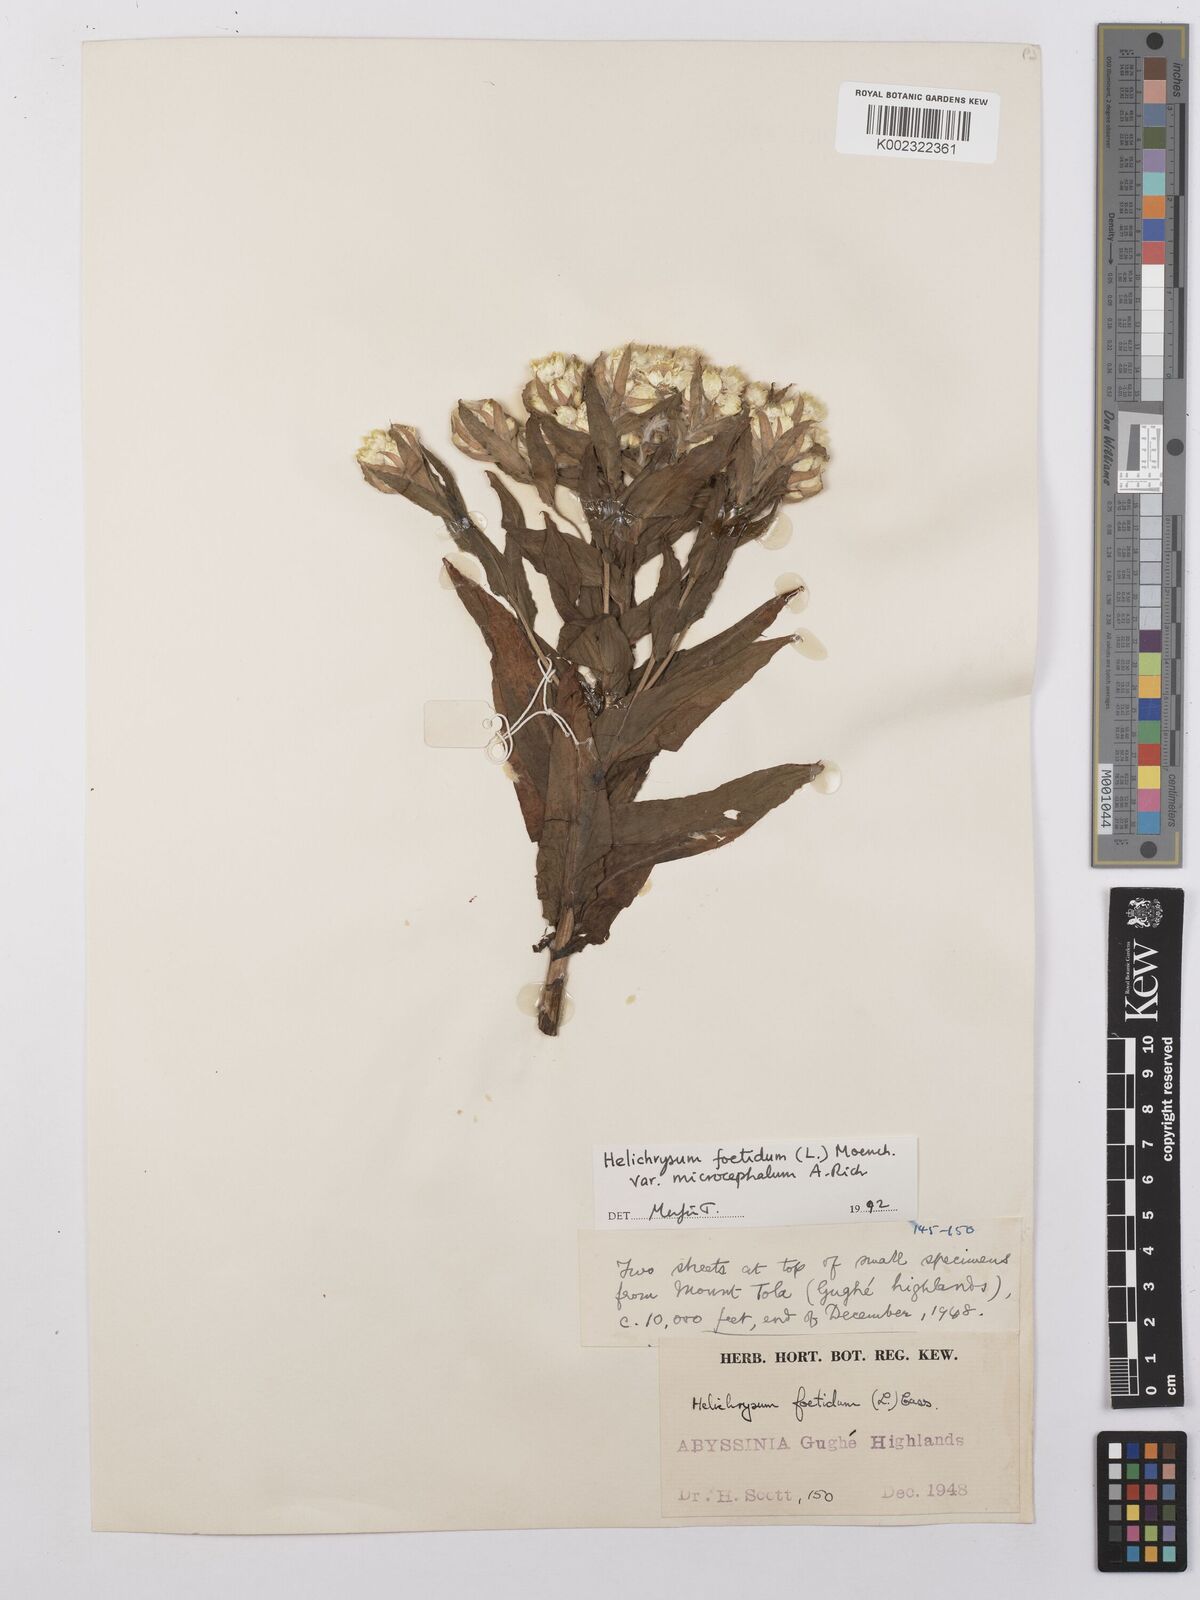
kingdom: Plantae
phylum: Tracheophyta
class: Magnoliopsida
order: Asterales
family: Asteraceae
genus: Helichrysum
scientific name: Helichrysum foetidum
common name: Stinking everlasting
